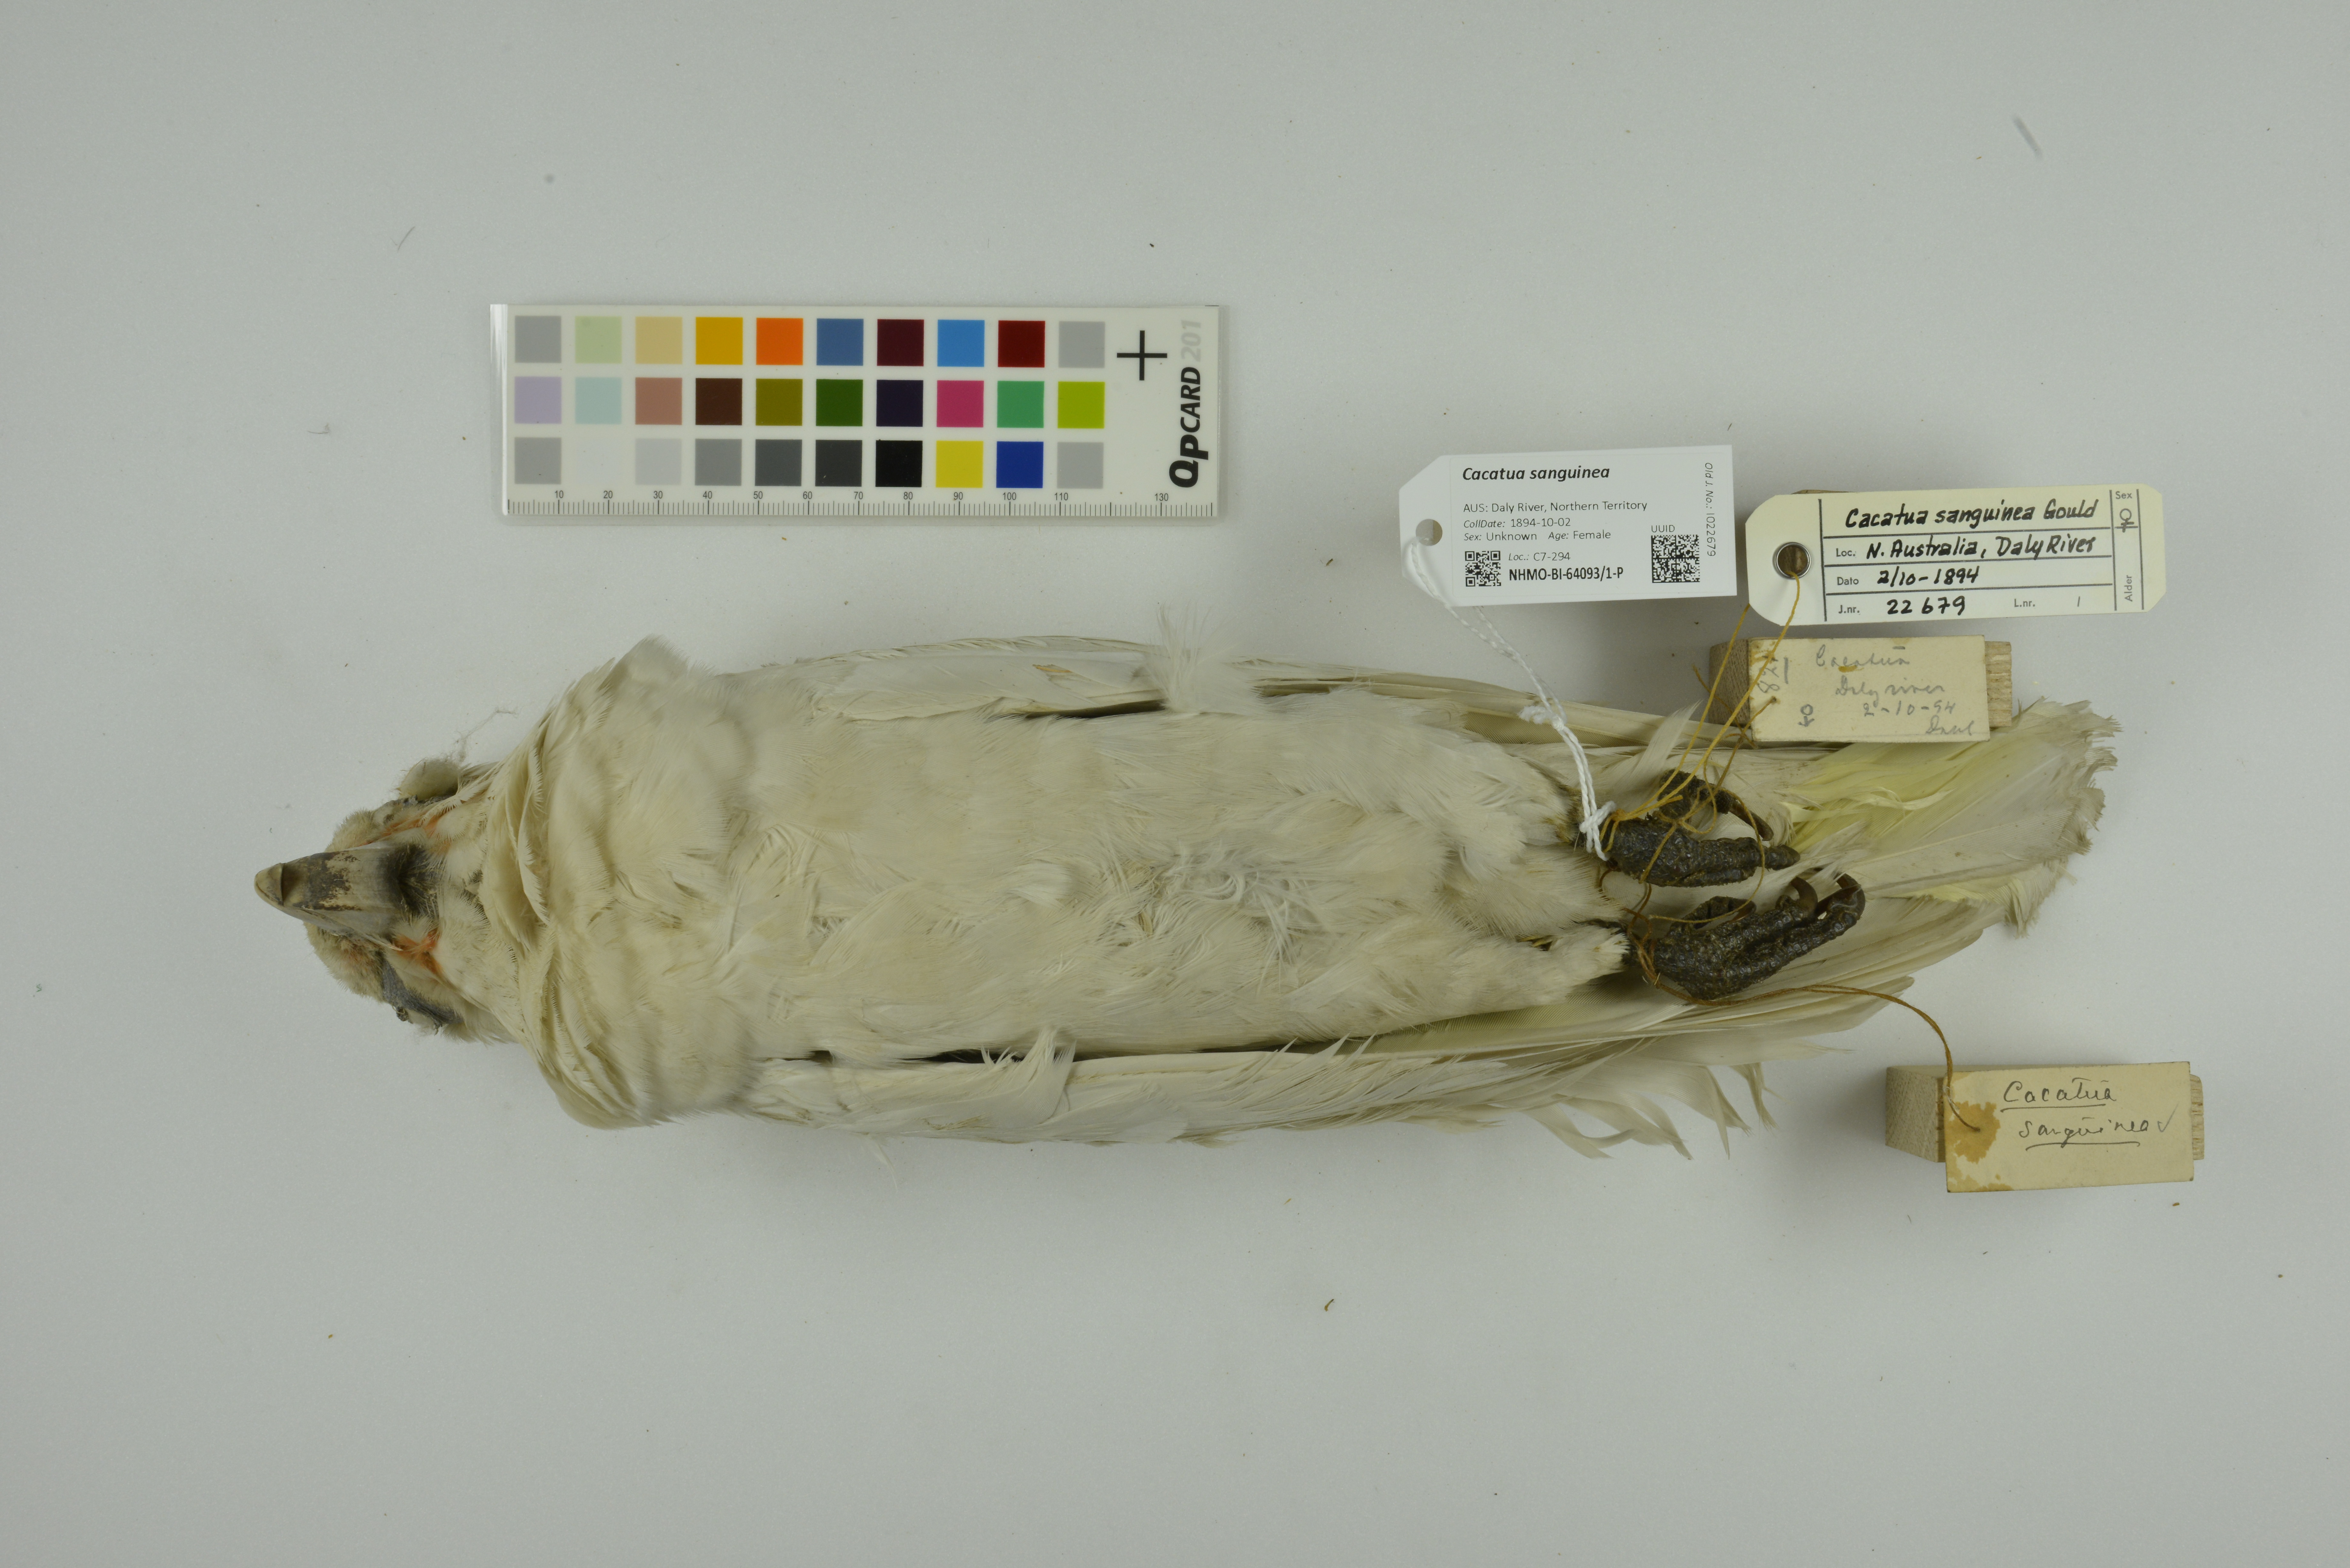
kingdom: Animalia
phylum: Chordata
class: Aves
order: Psittaciformes
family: Psittacidae
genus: Cacatua
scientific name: Cacatua sanguinea
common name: Little corella
